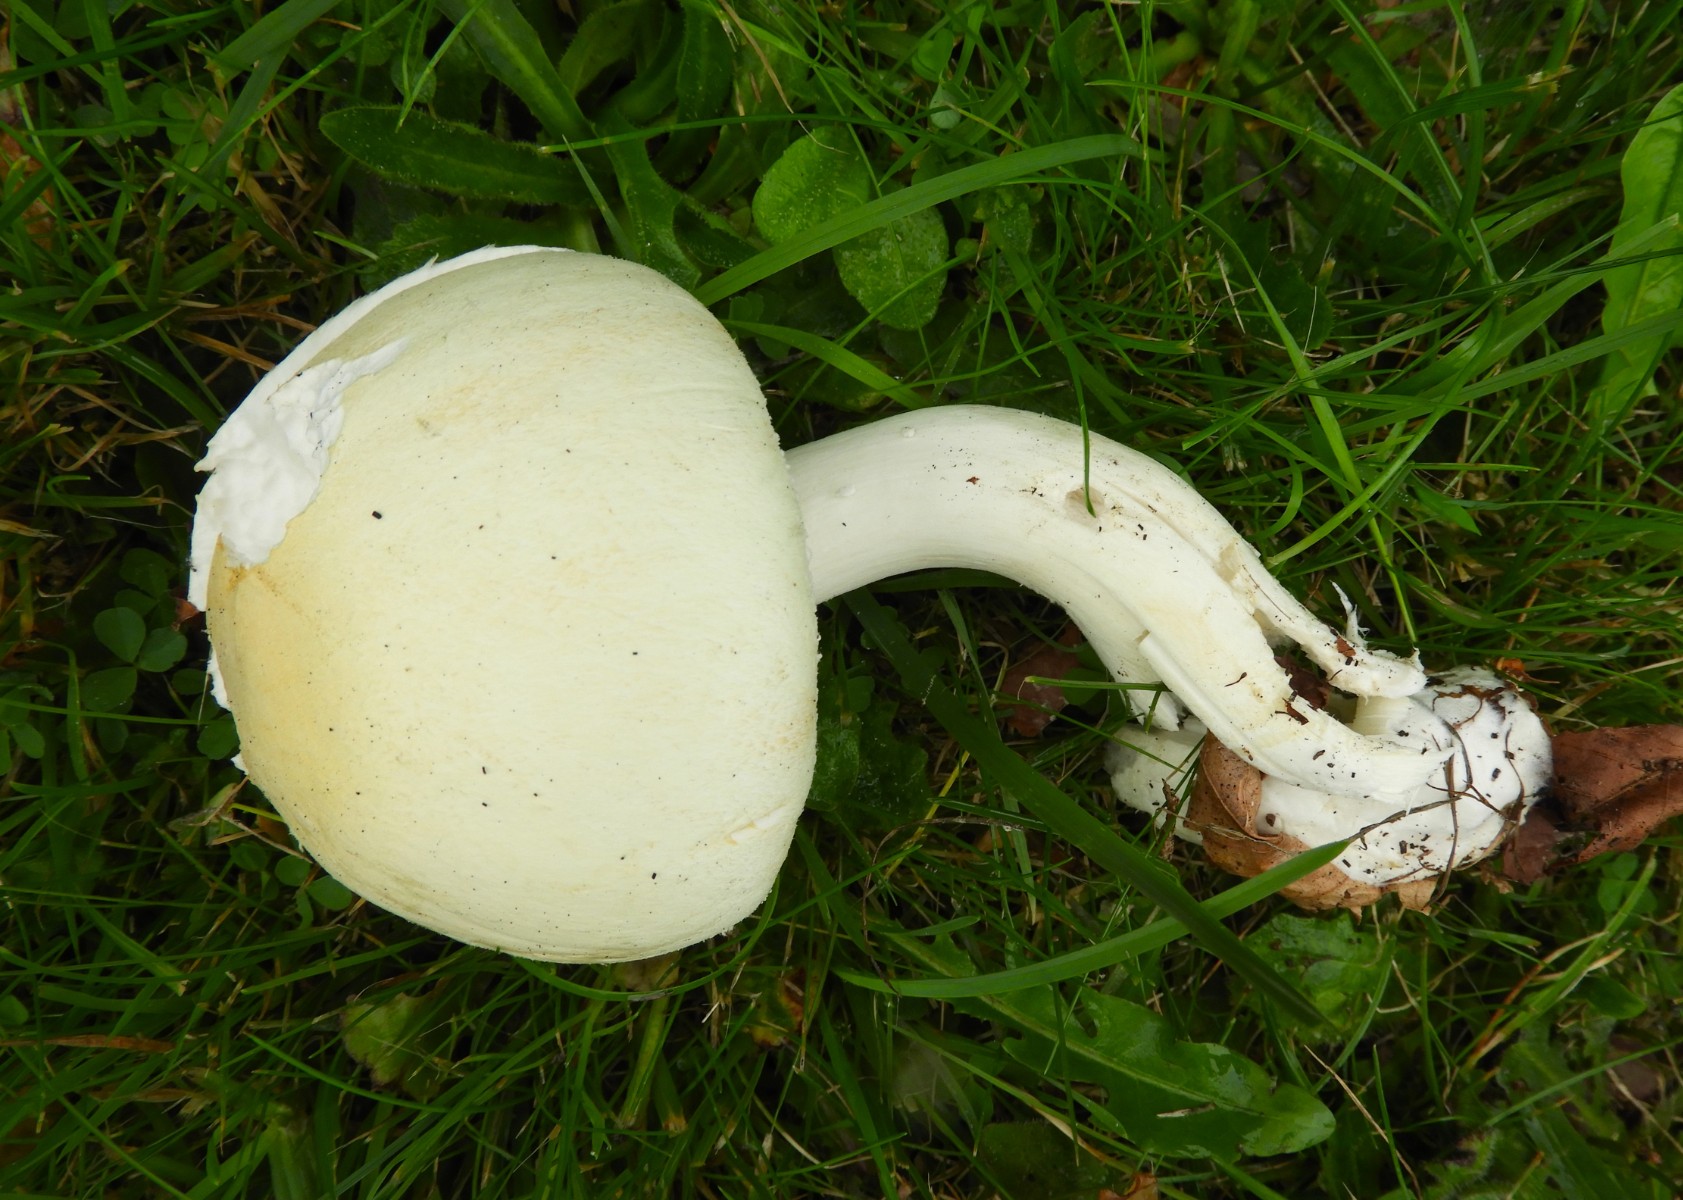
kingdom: Fungi
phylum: Basidiomycota
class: Agaricomycetes
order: Agaricales
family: Agaricaceae
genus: Agaricus
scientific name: Agaricus arvensis
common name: ager-champignon
